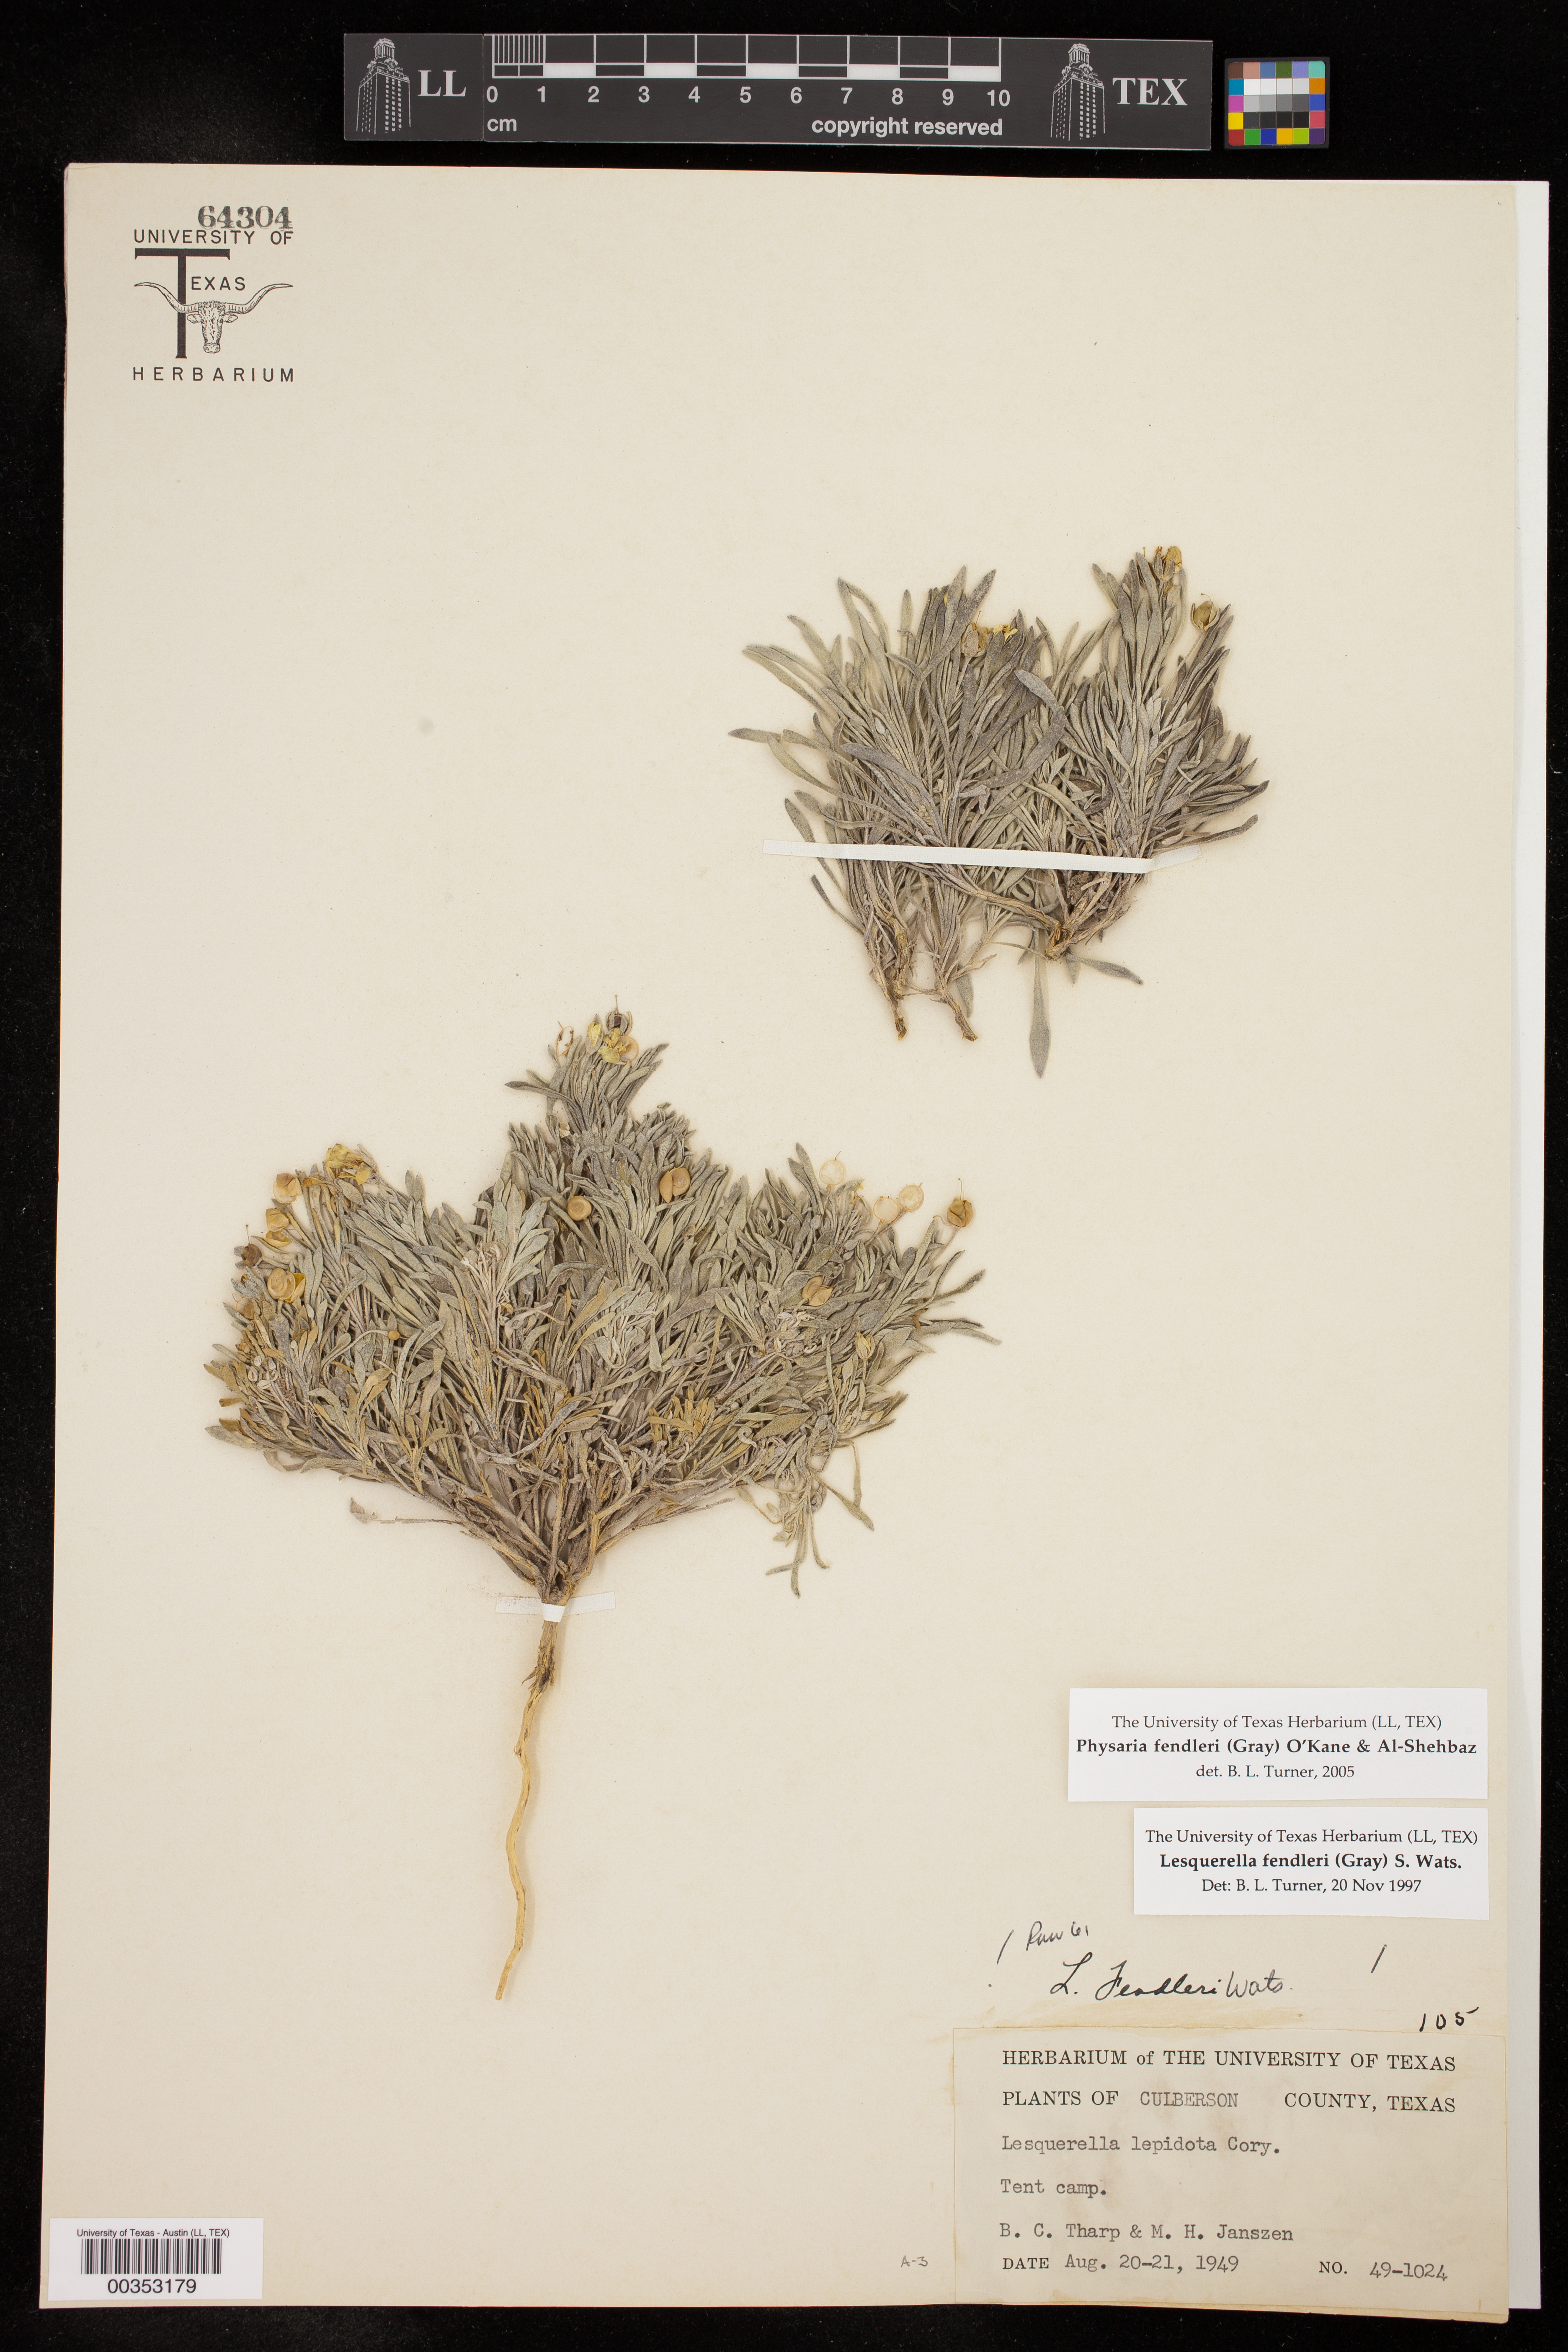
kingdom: Plantae
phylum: Tracheophyta
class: Magnoliopsida
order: Brassicales
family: Brassicaceae
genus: Physaria
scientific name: Physaria fendleri
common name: Fendler's bladderpod
